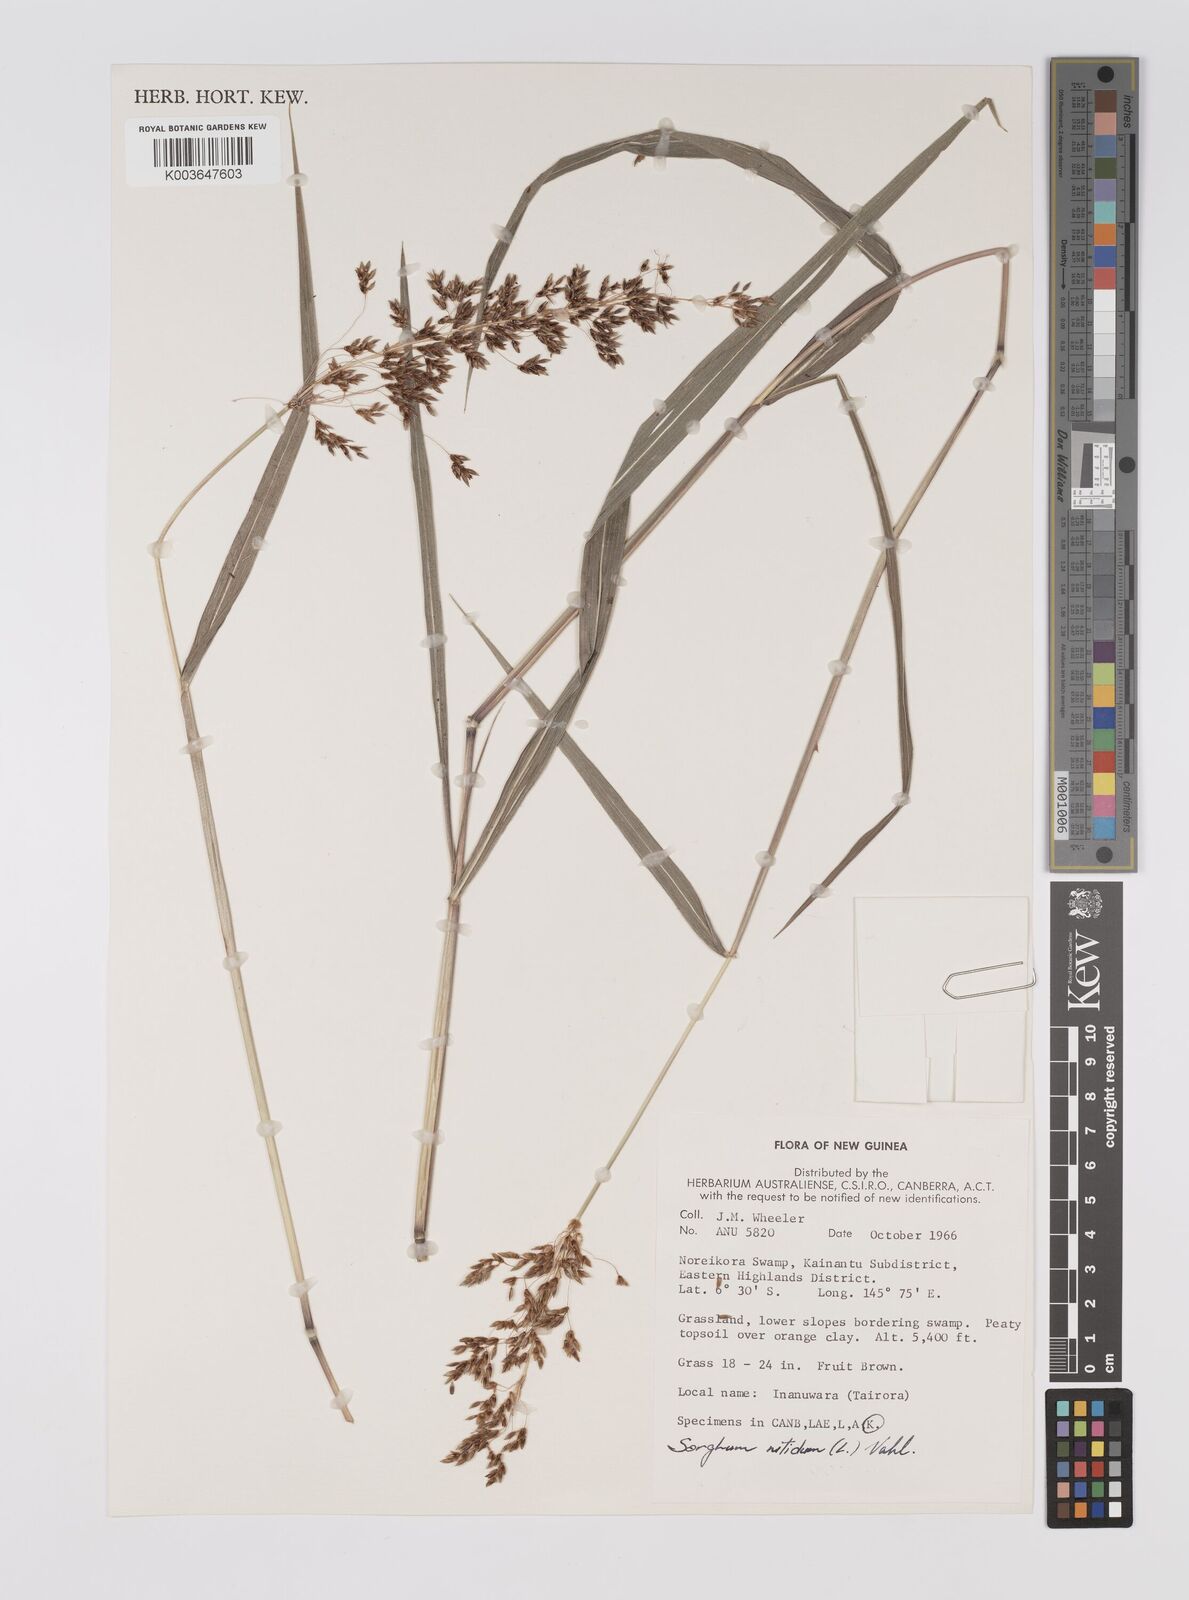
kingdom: Plantae
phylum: Tracheophyta
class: Liliopsida
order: Poales
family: Poaceae
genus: Sorghum
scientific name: Sorghum nitidum
